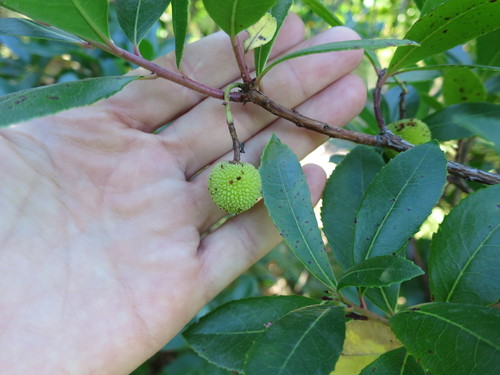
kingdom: Plantae
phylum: Tracheophyta
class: Magnoliopsida
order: Ericales
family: Ericaceae
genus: Arbutus
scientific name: Arbutus unedo
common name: Strawberry-tree
